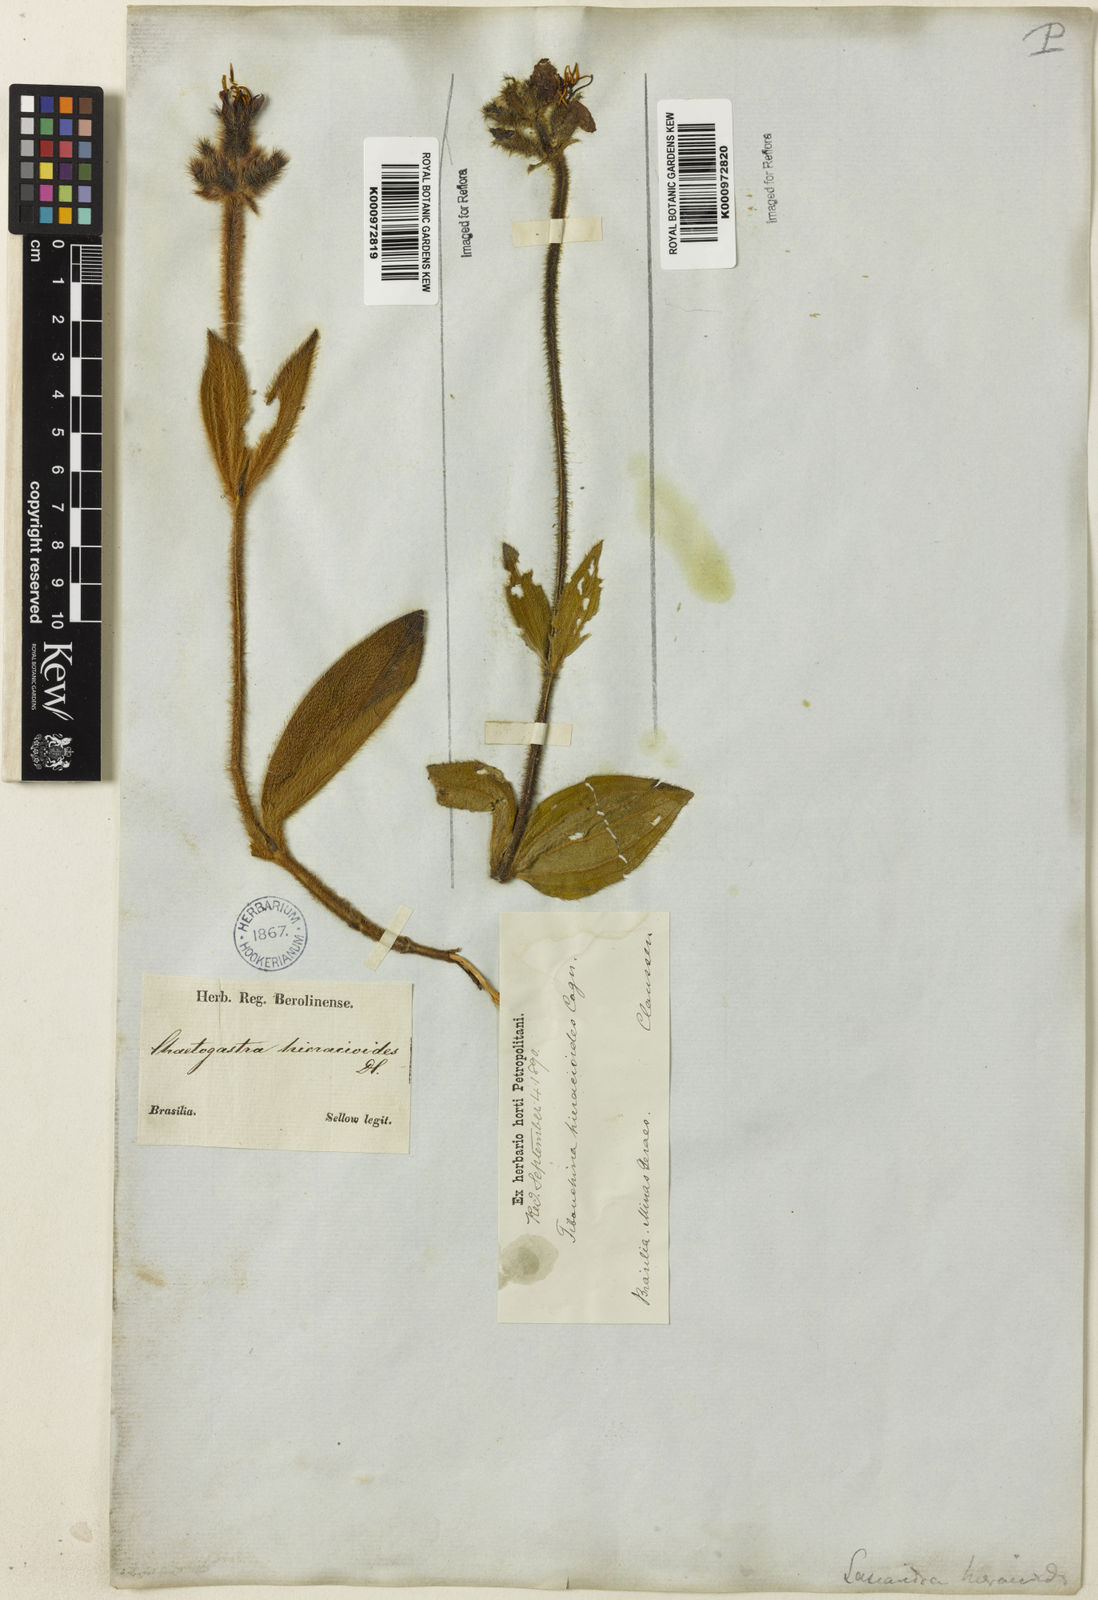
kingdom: Plantae
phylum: Tracheophyta
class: Magnoliopsida
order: Myrtales
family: Melastomataceae
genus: Chaetogastra
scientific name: Chaetogastra hieracioides
